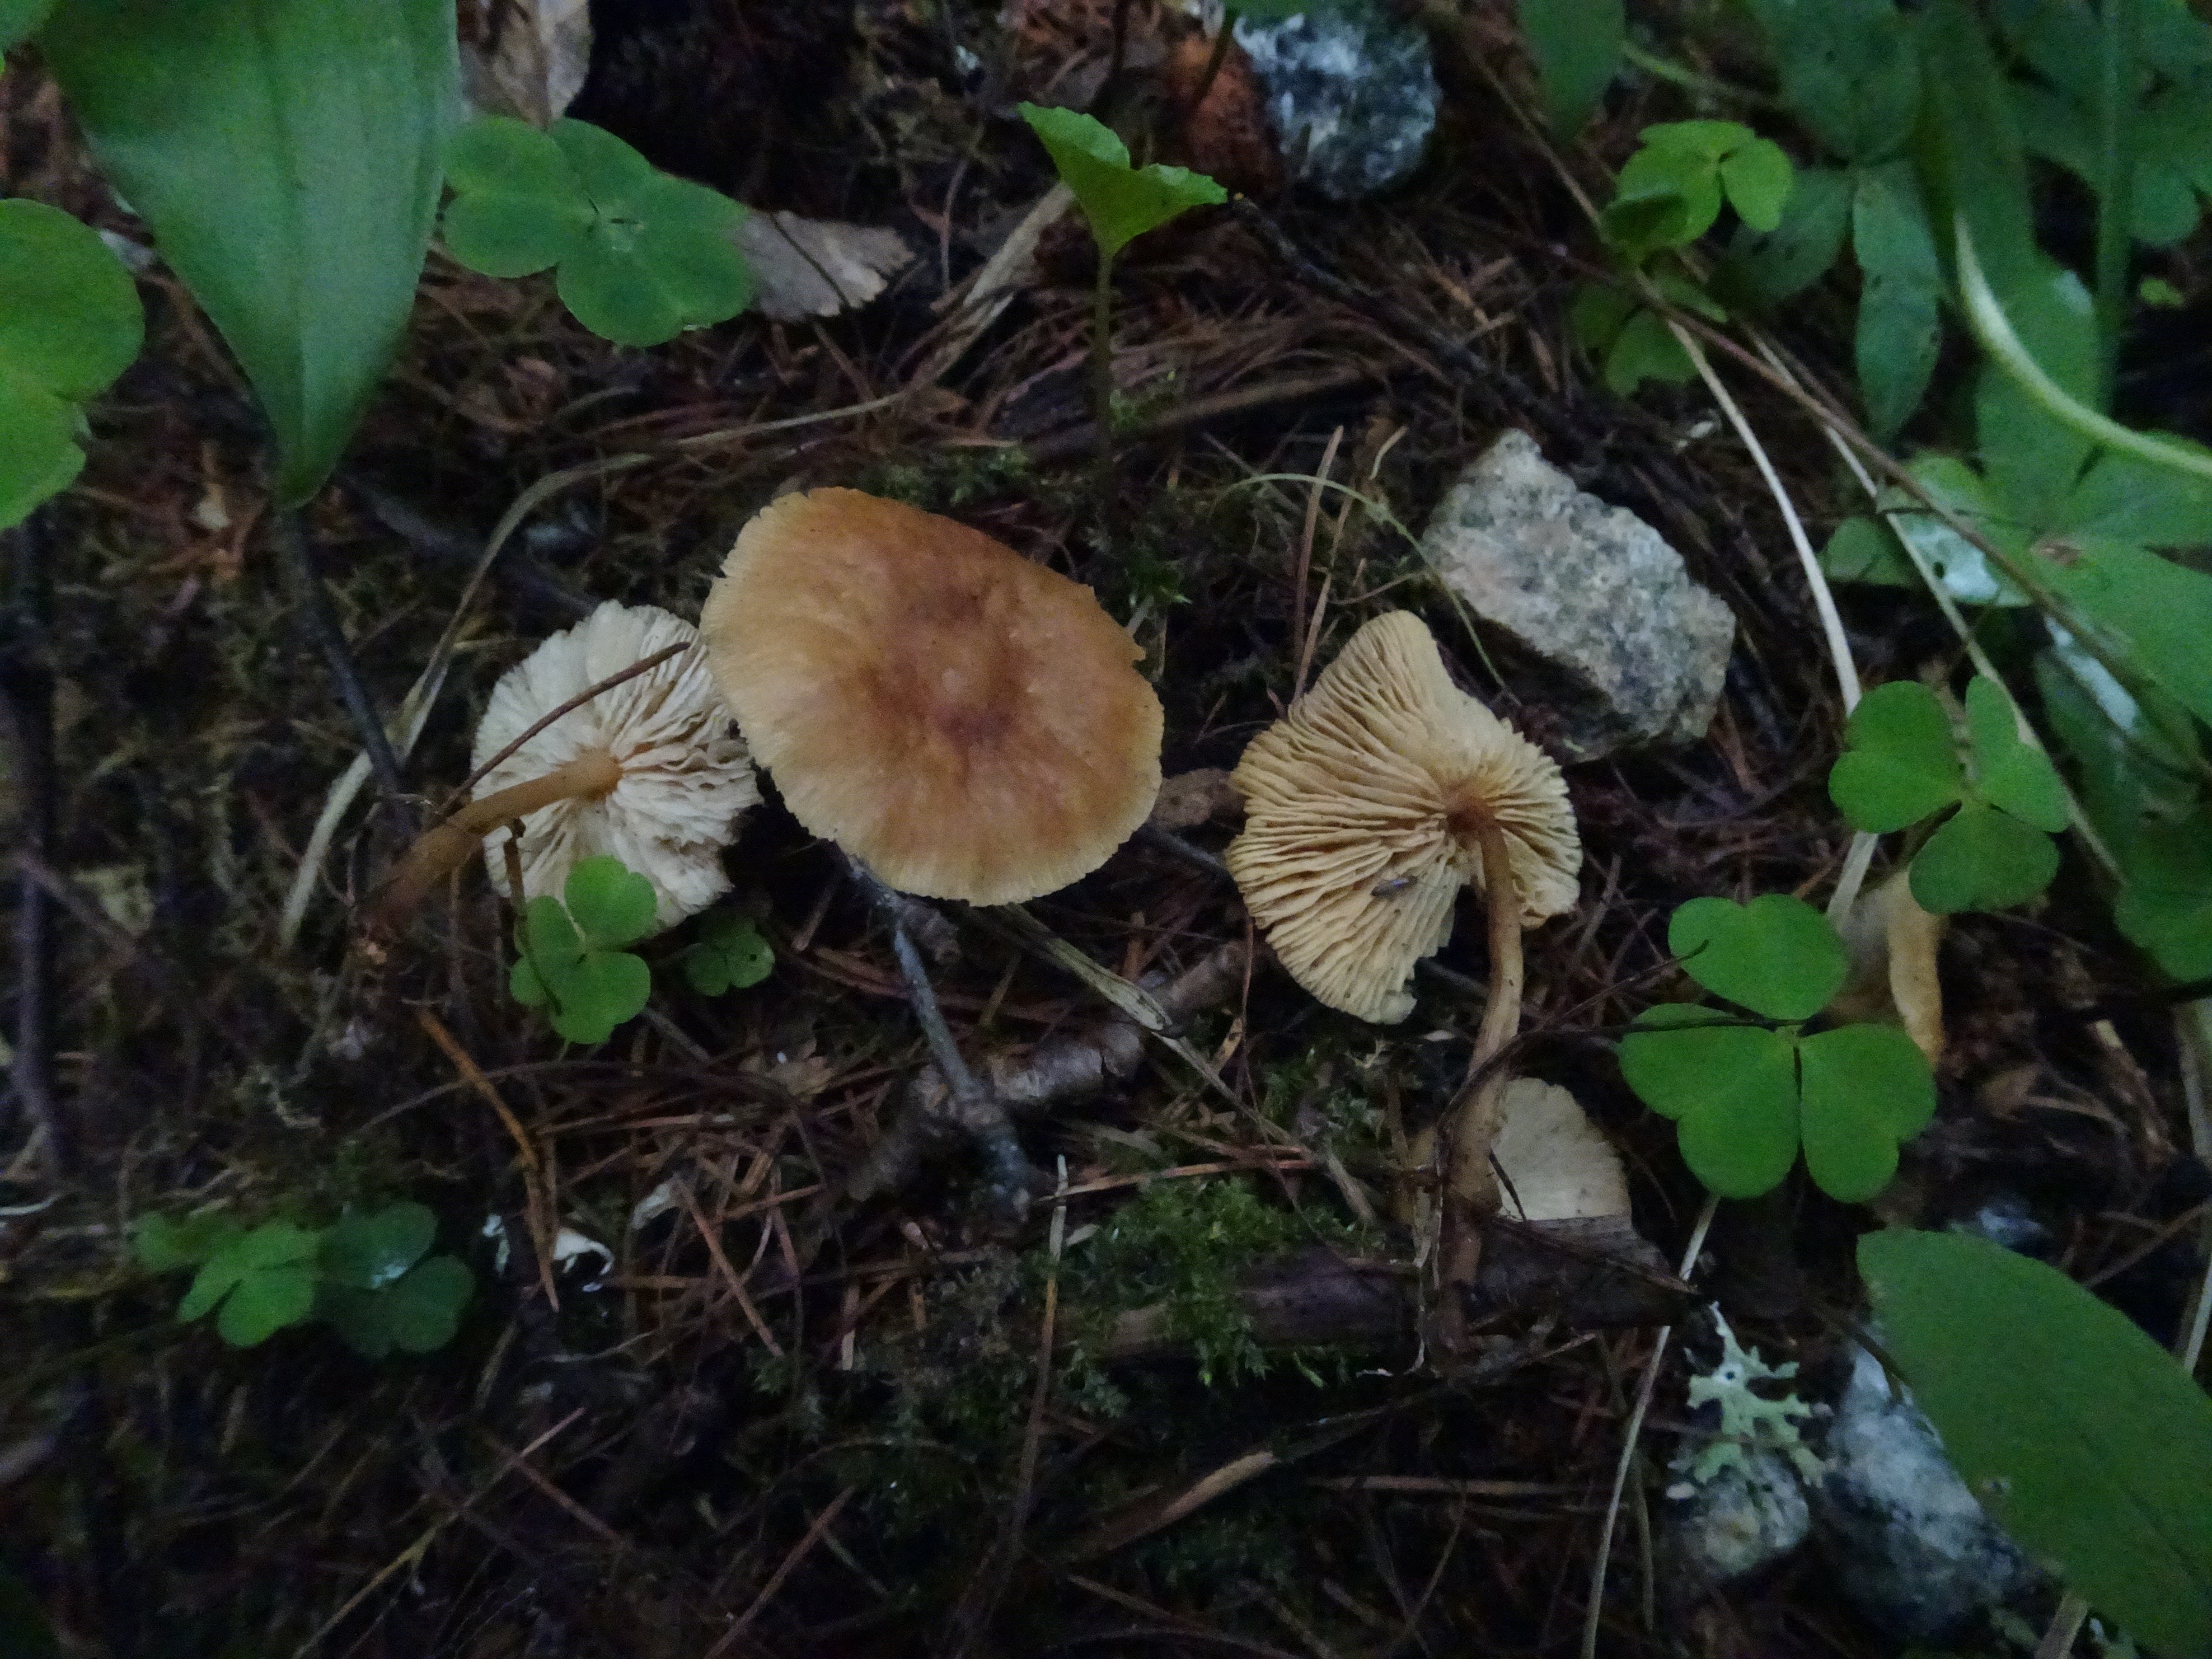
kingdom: Fungi
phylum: Basidiomycota
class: Agaricomycetes
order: Agaricales
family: Omphalotaceae
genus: Collybiopsis
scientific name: Collybiopsis peronata
